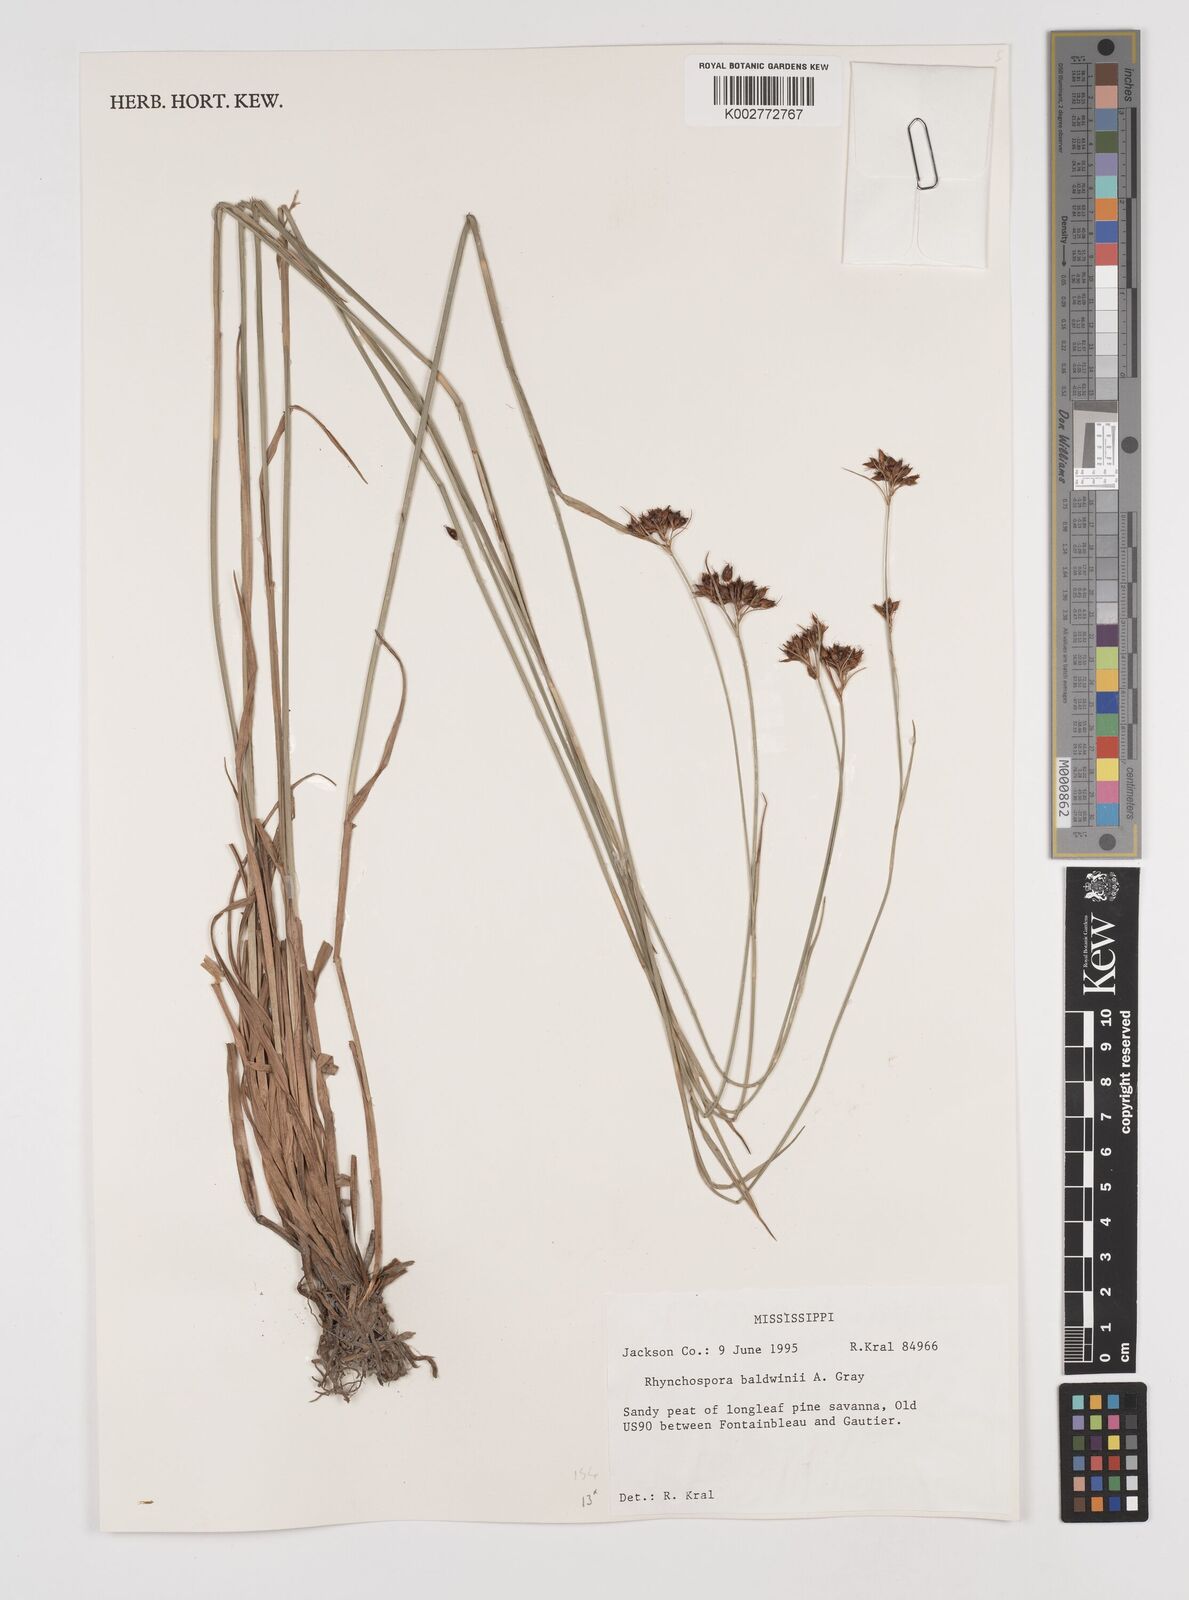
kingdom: Plantae
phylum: Tracheophyta
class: Liliopsida
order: Poales
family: Cyperaceae
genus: Rhynchospora
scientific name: Rhynchospora baldwinii
